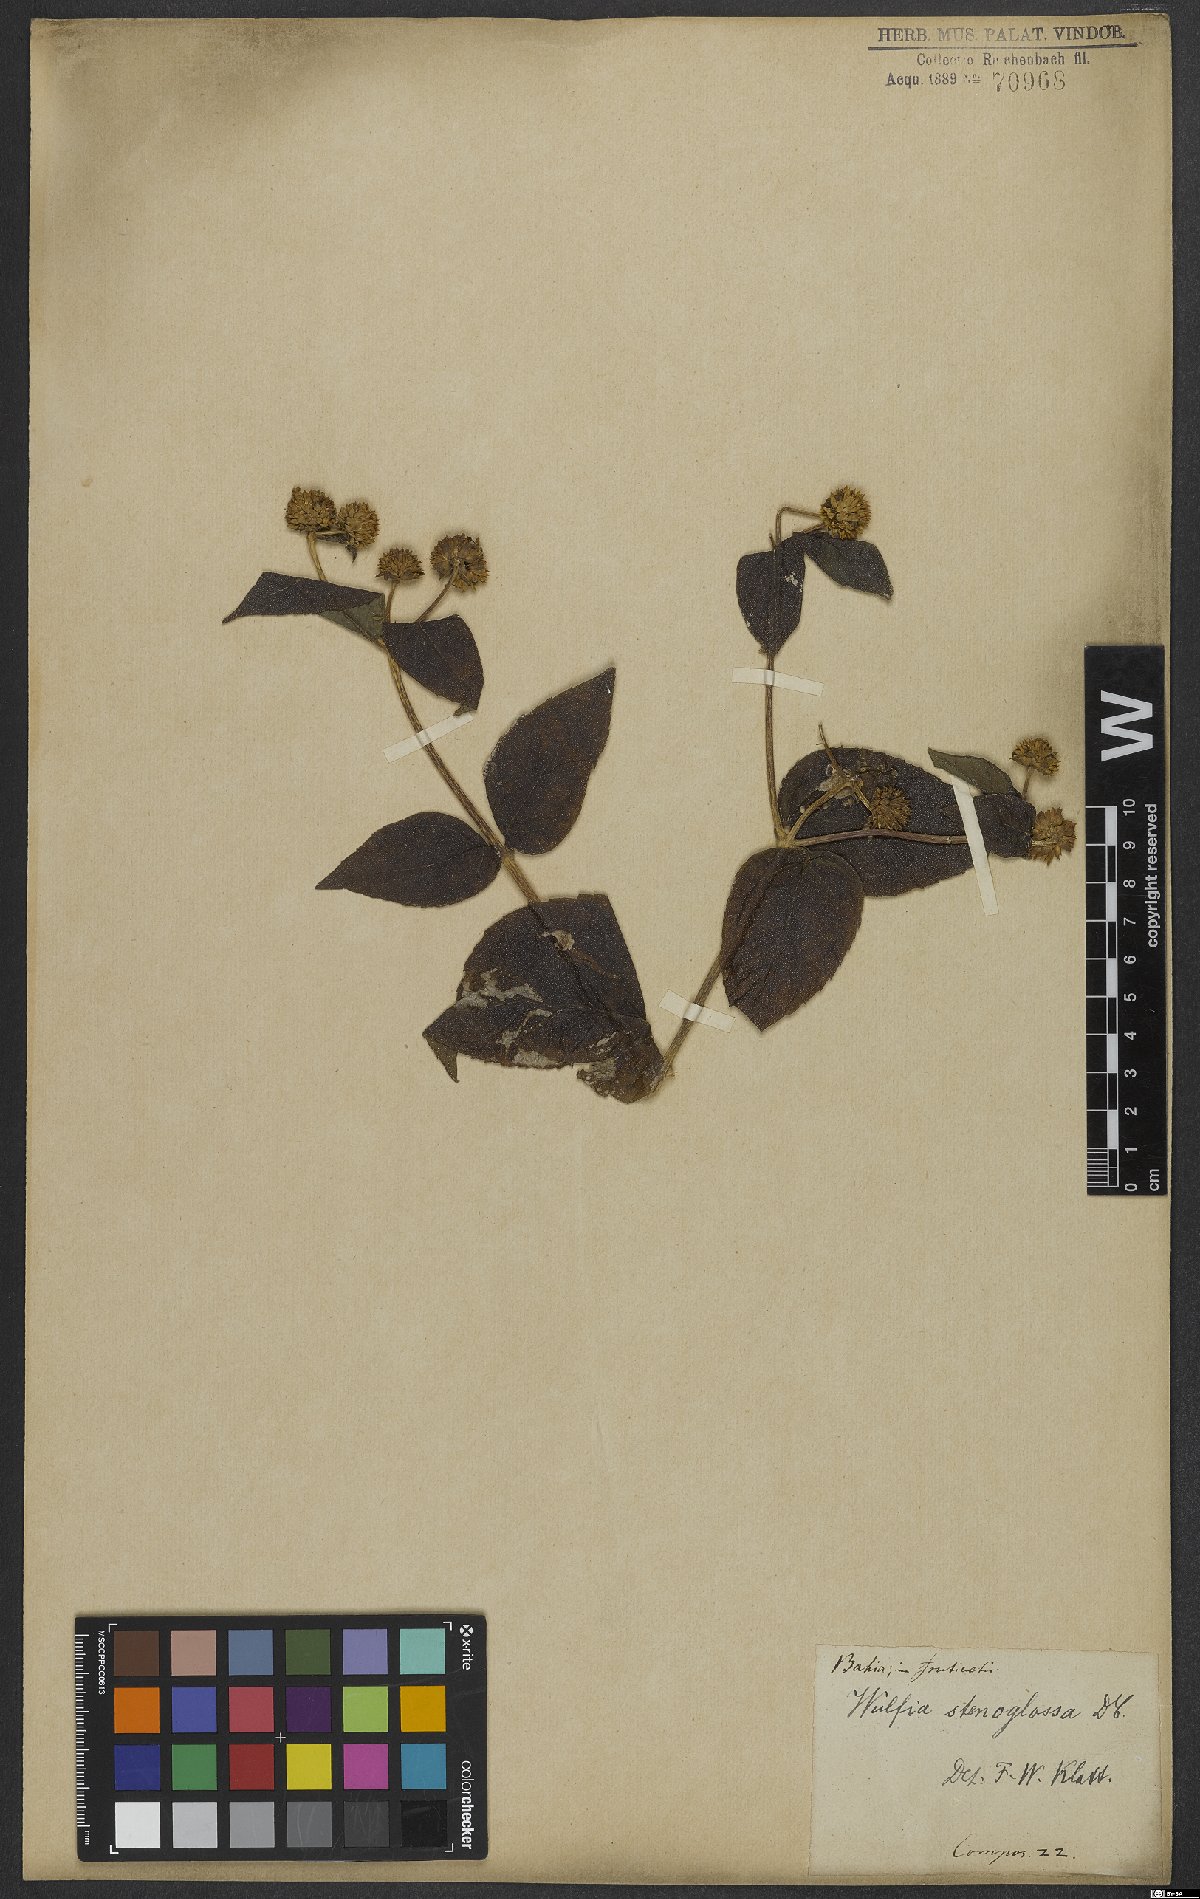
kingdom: Plantae
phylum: Tracheophyta
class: Magnoliopsida
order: Asterales
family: Asteraceae
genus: Tilesia
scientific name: Tilesia
